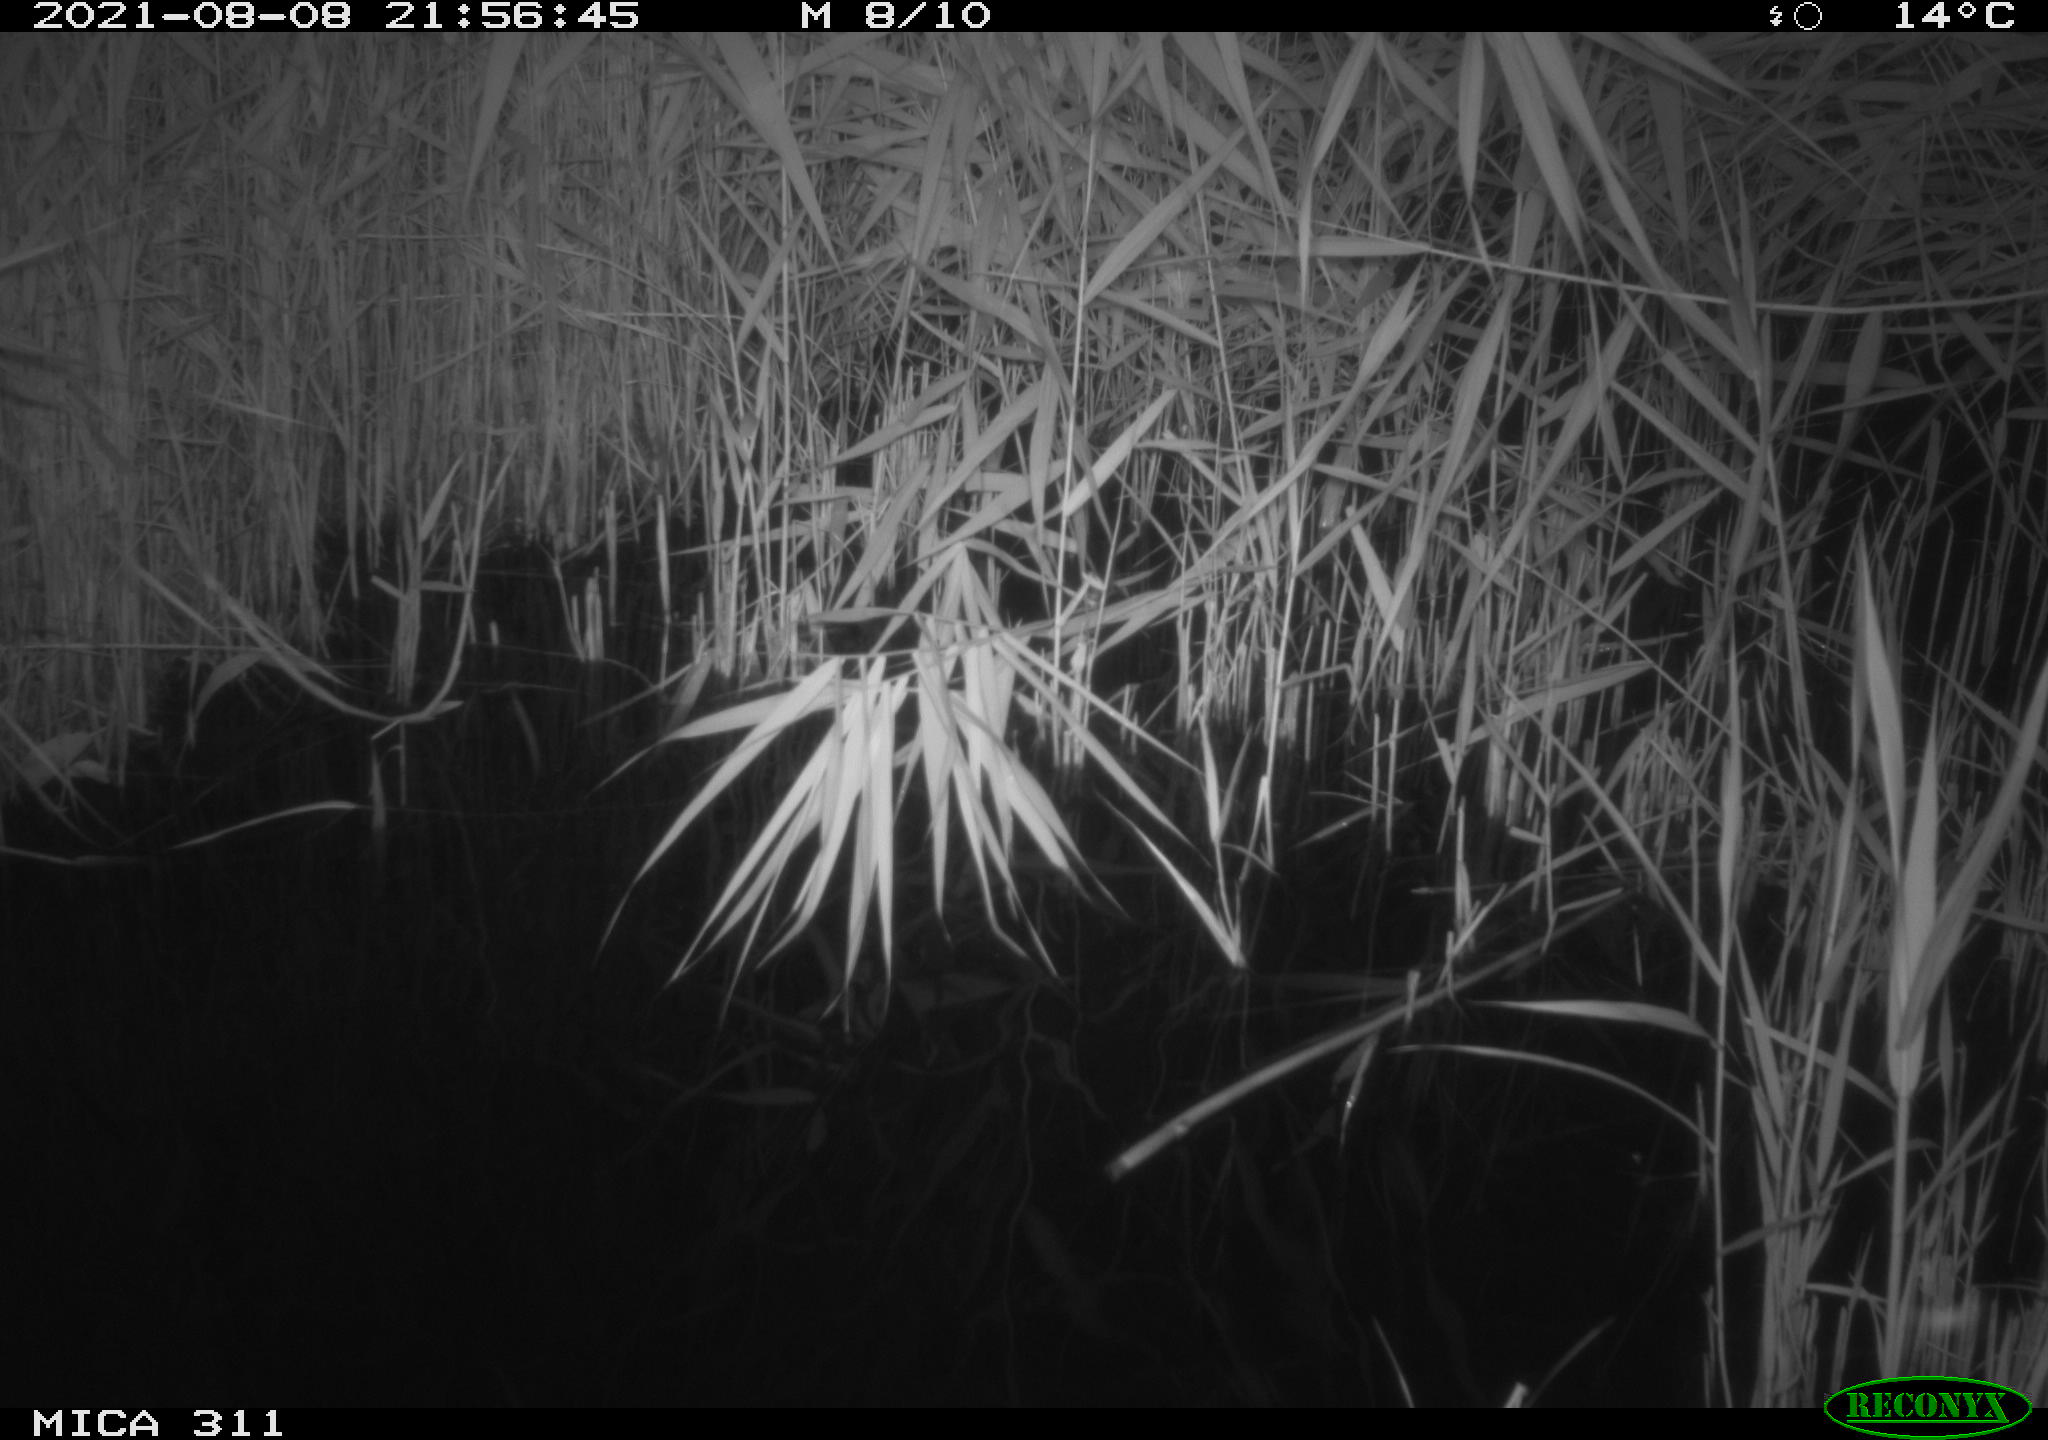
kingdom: Animalia
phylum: Chordata
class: Mammalia
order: Rodentia
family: Muridae
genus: Rattus
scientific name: Rattus norvegicus
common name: Brown rat
